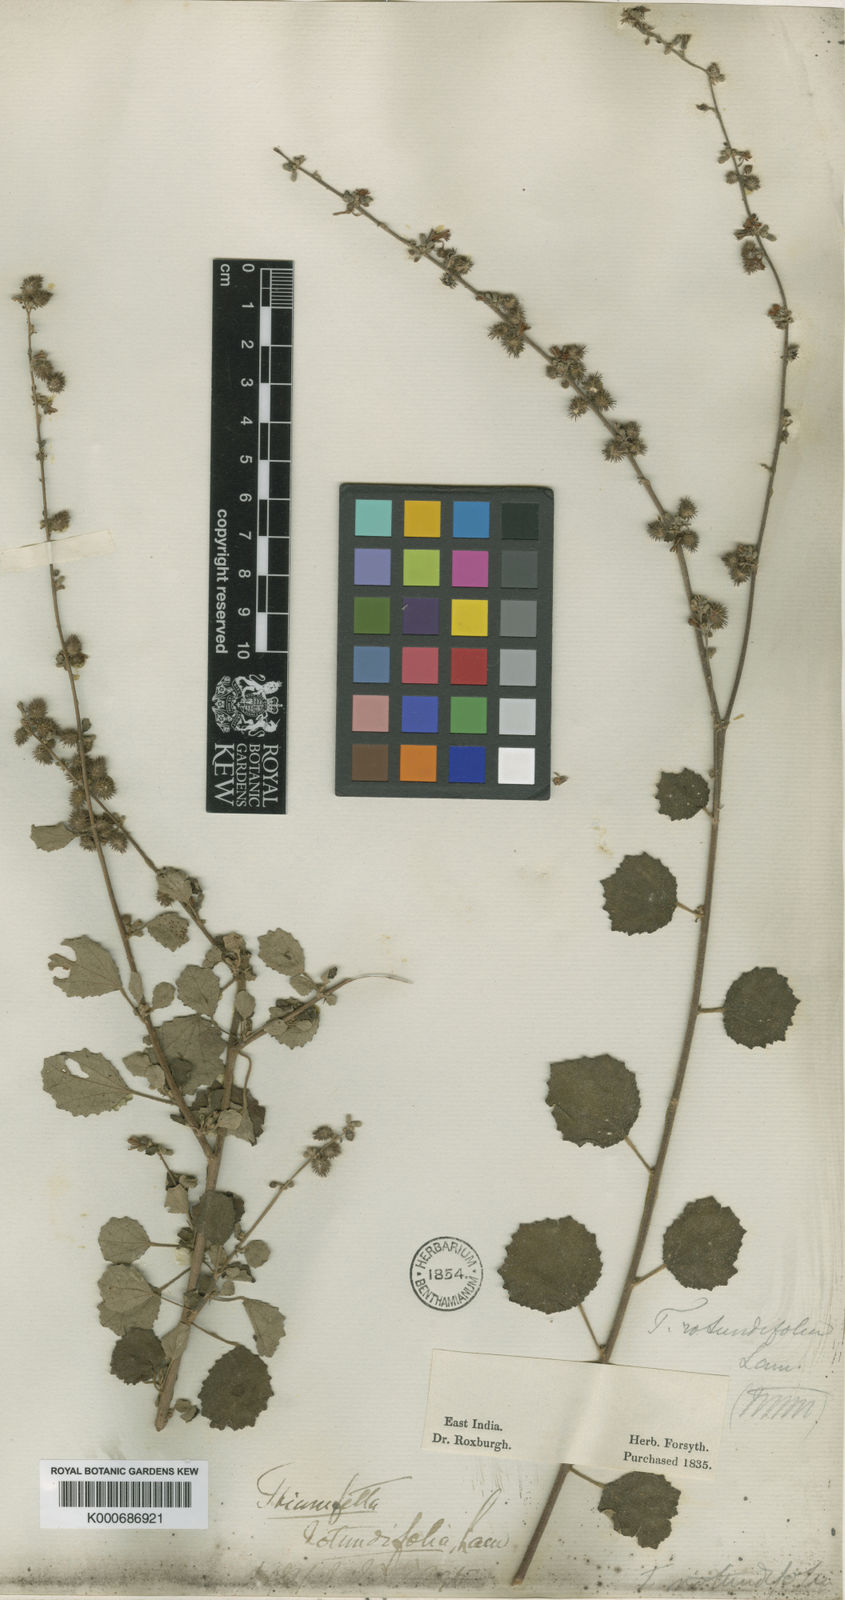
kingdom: Plantae
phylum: Tracheophyta
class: Magnoliopsida
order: Malvales
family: Malvaceae
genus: Triumfetta
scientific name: Triumfetta rotundifolia
